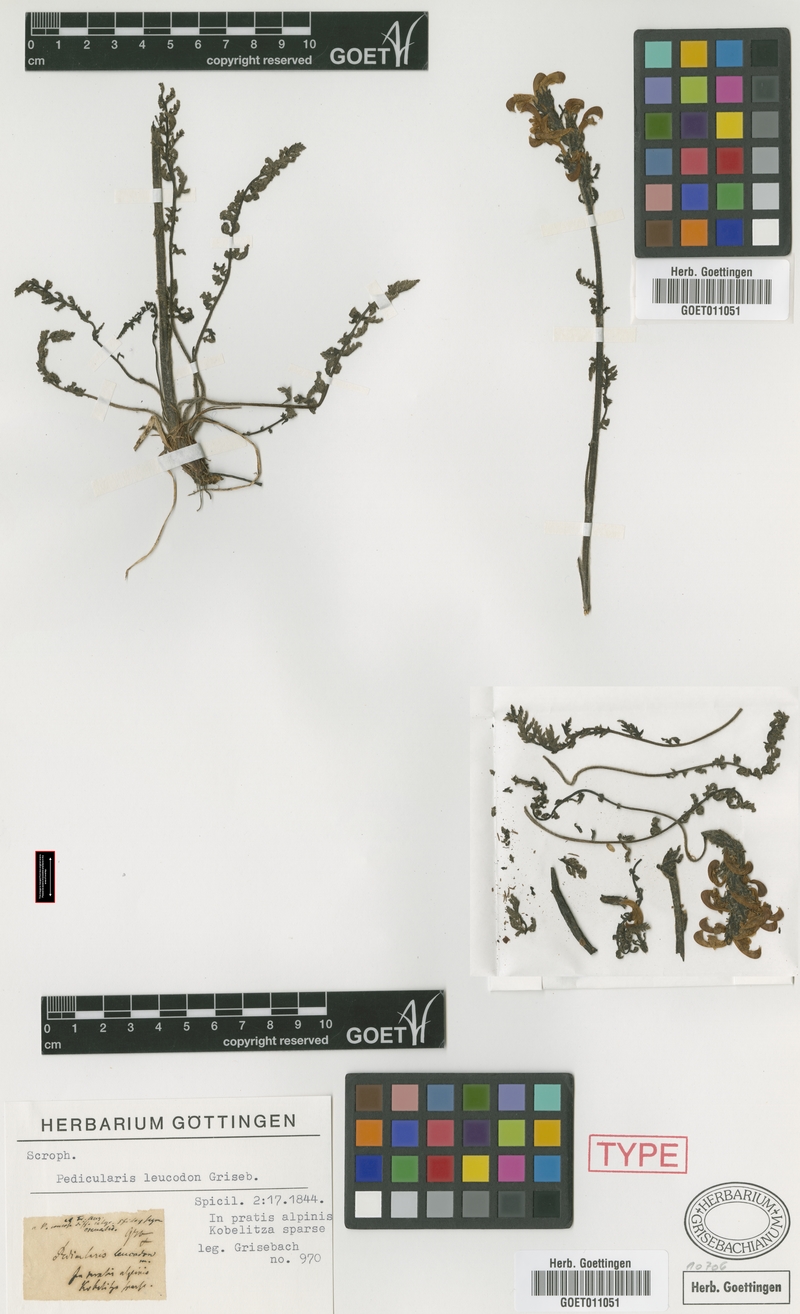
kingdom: Plantae
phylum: Tracheophyta
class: Magnoliopsida
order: Lamiales
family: Orobanchaceae
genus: Pedicularis
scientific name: Pedicularis leucodon
